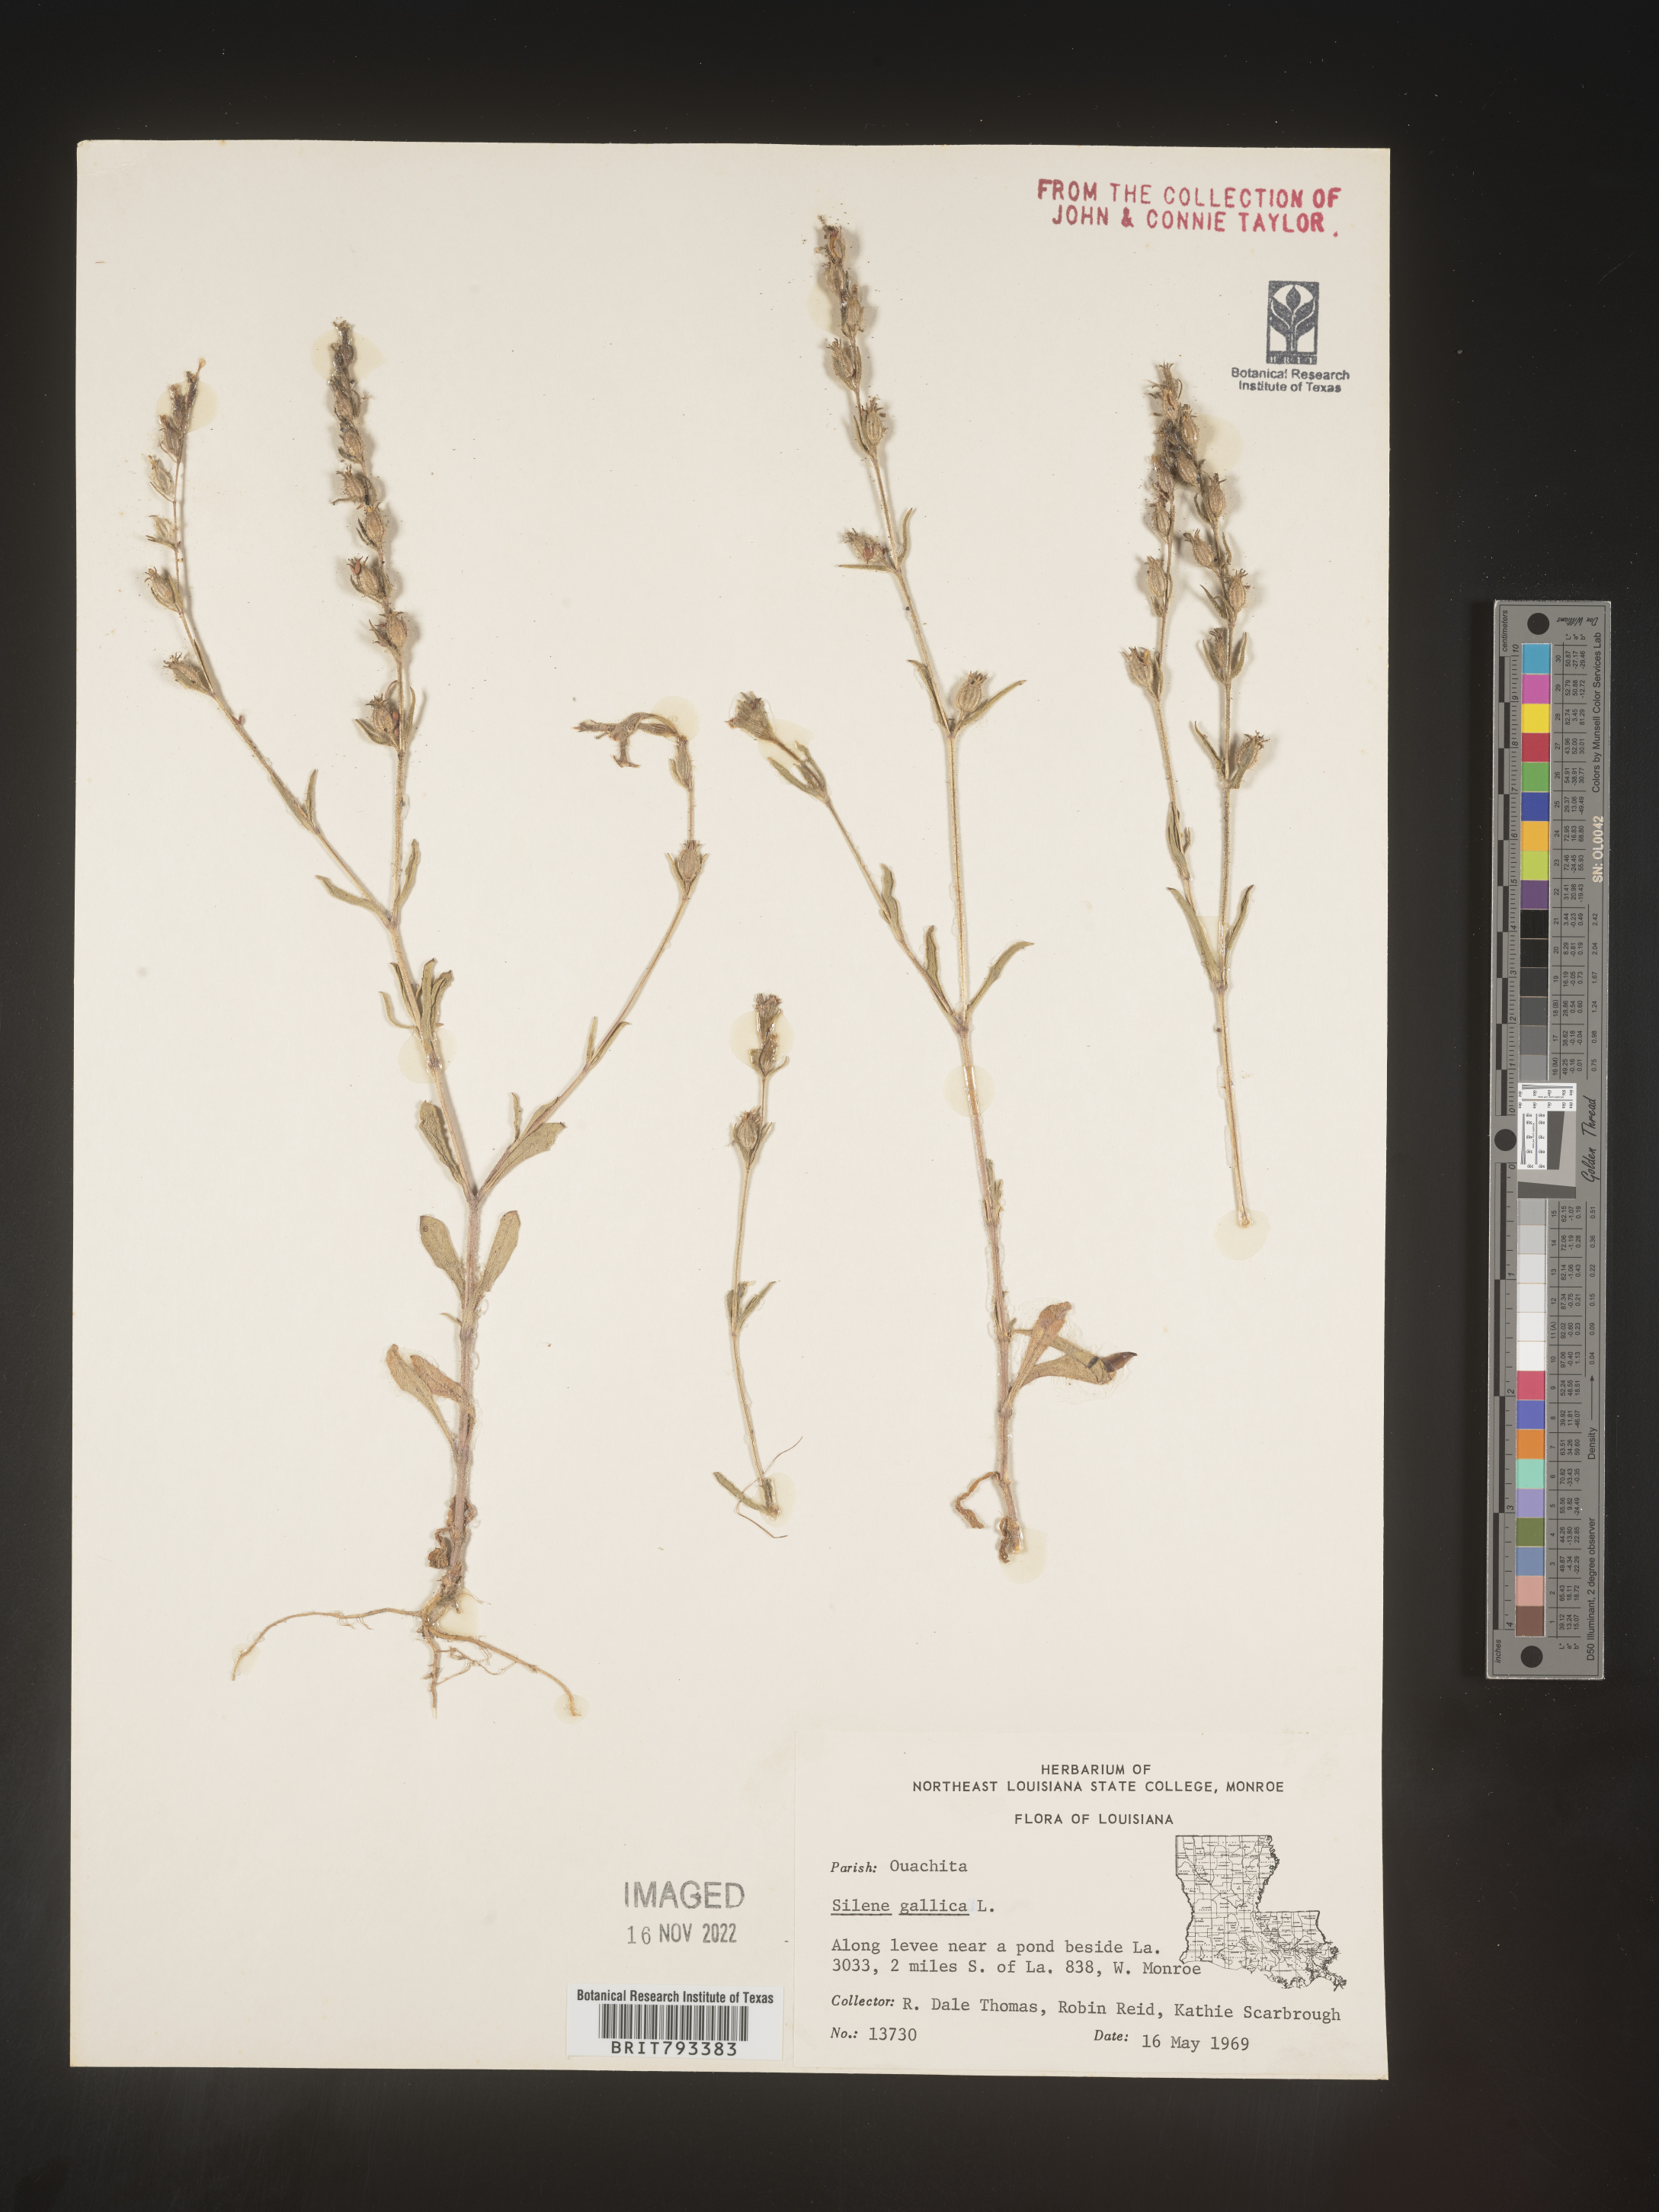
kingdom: Plantae
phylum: Tracheophyta
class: Magnoliopsida
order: Caryophyllales
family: Caryophyllaceae
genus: Silene
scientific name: Silene gallica
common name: Small-flowered catchfly
